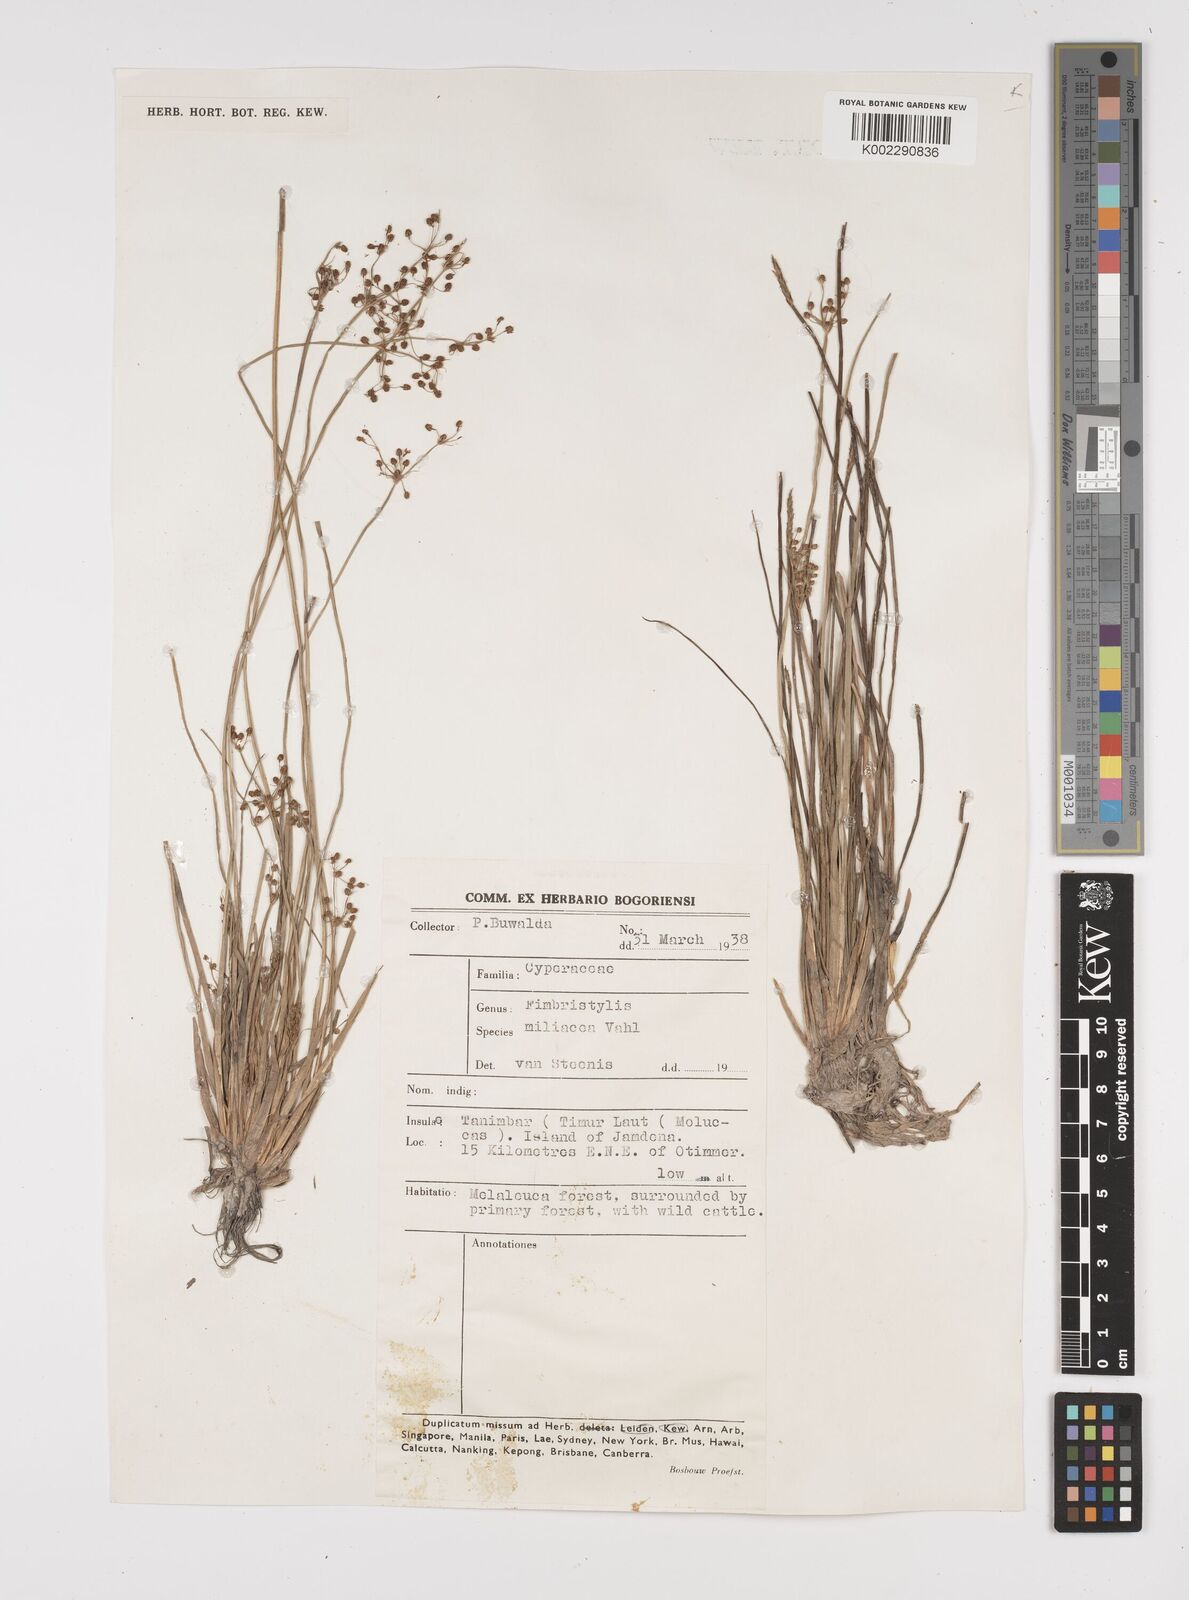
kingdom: Plantae
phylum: Tracheophyta
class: Liliopsida
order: Poales
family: Cyperaceae
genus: Fimbristylis
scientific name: Fimbristylis littoralis
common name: Fimbry
